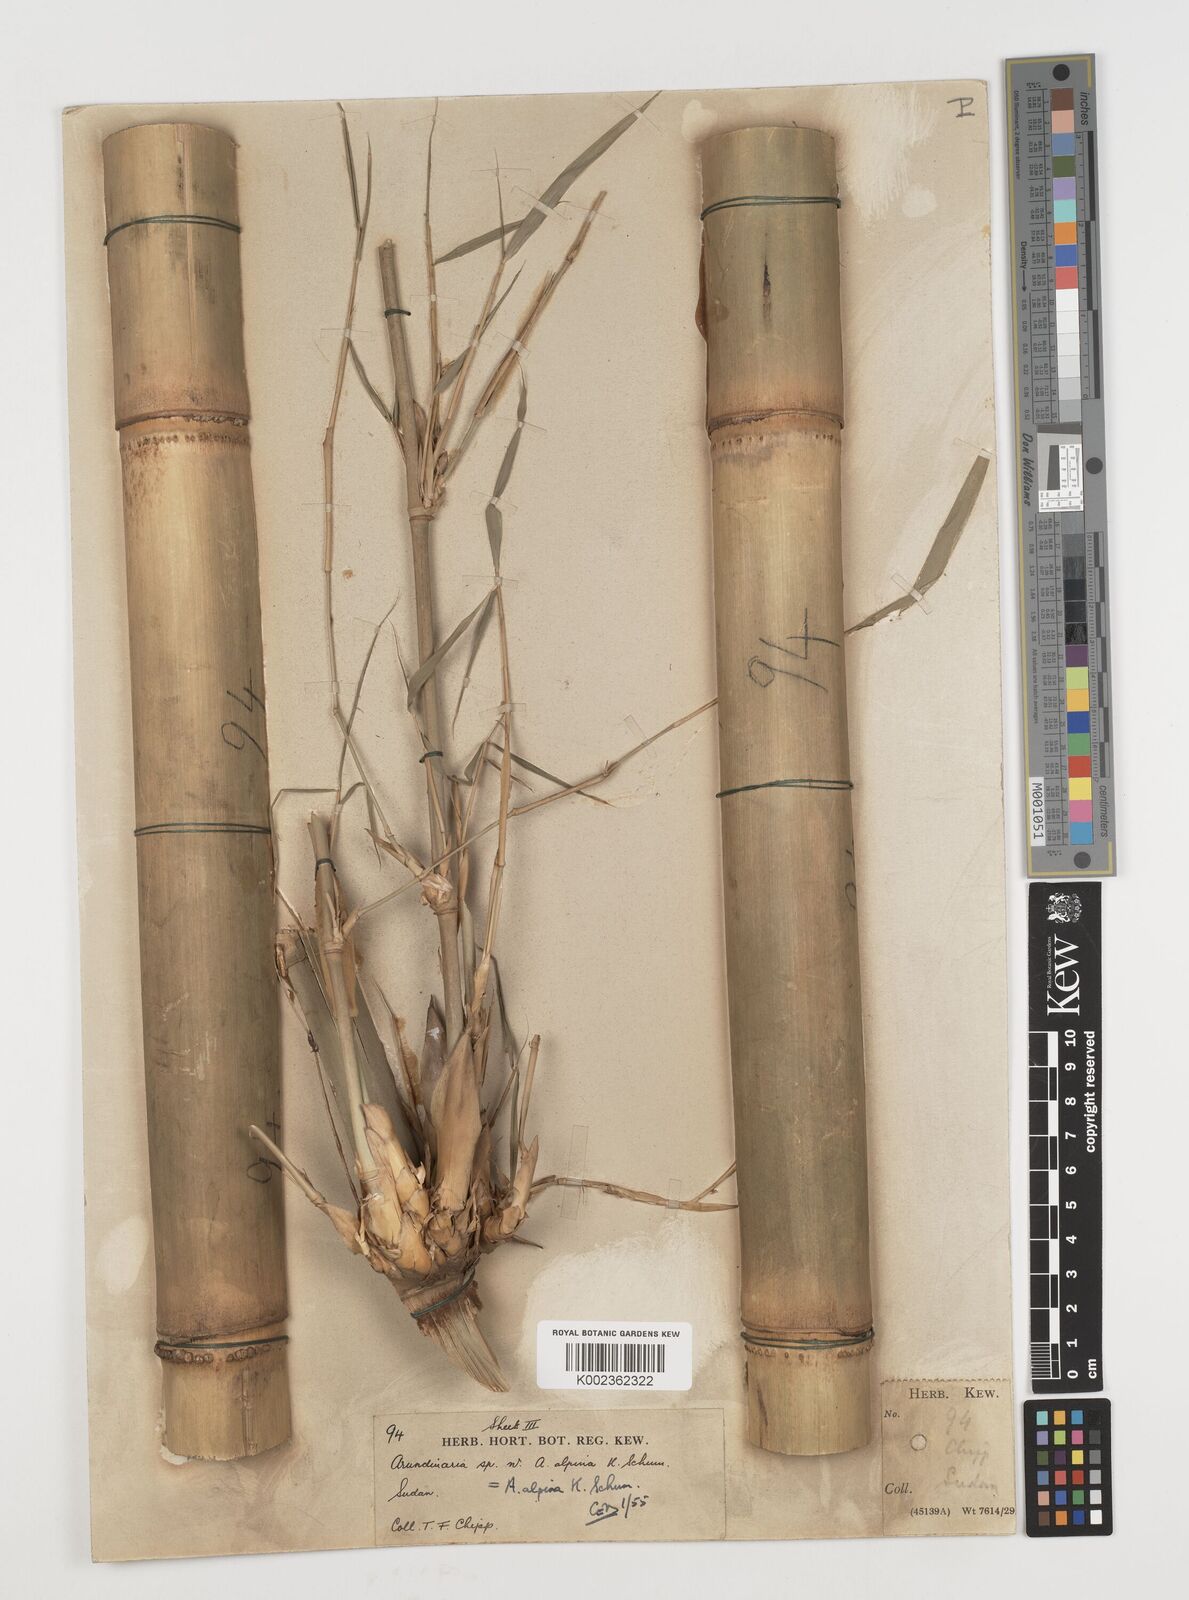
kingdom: Plantae
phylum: Tracheophyta
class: Liliopsida
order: Poales
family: Poaceae
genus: Oldeania
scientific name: Oldeania alpina
